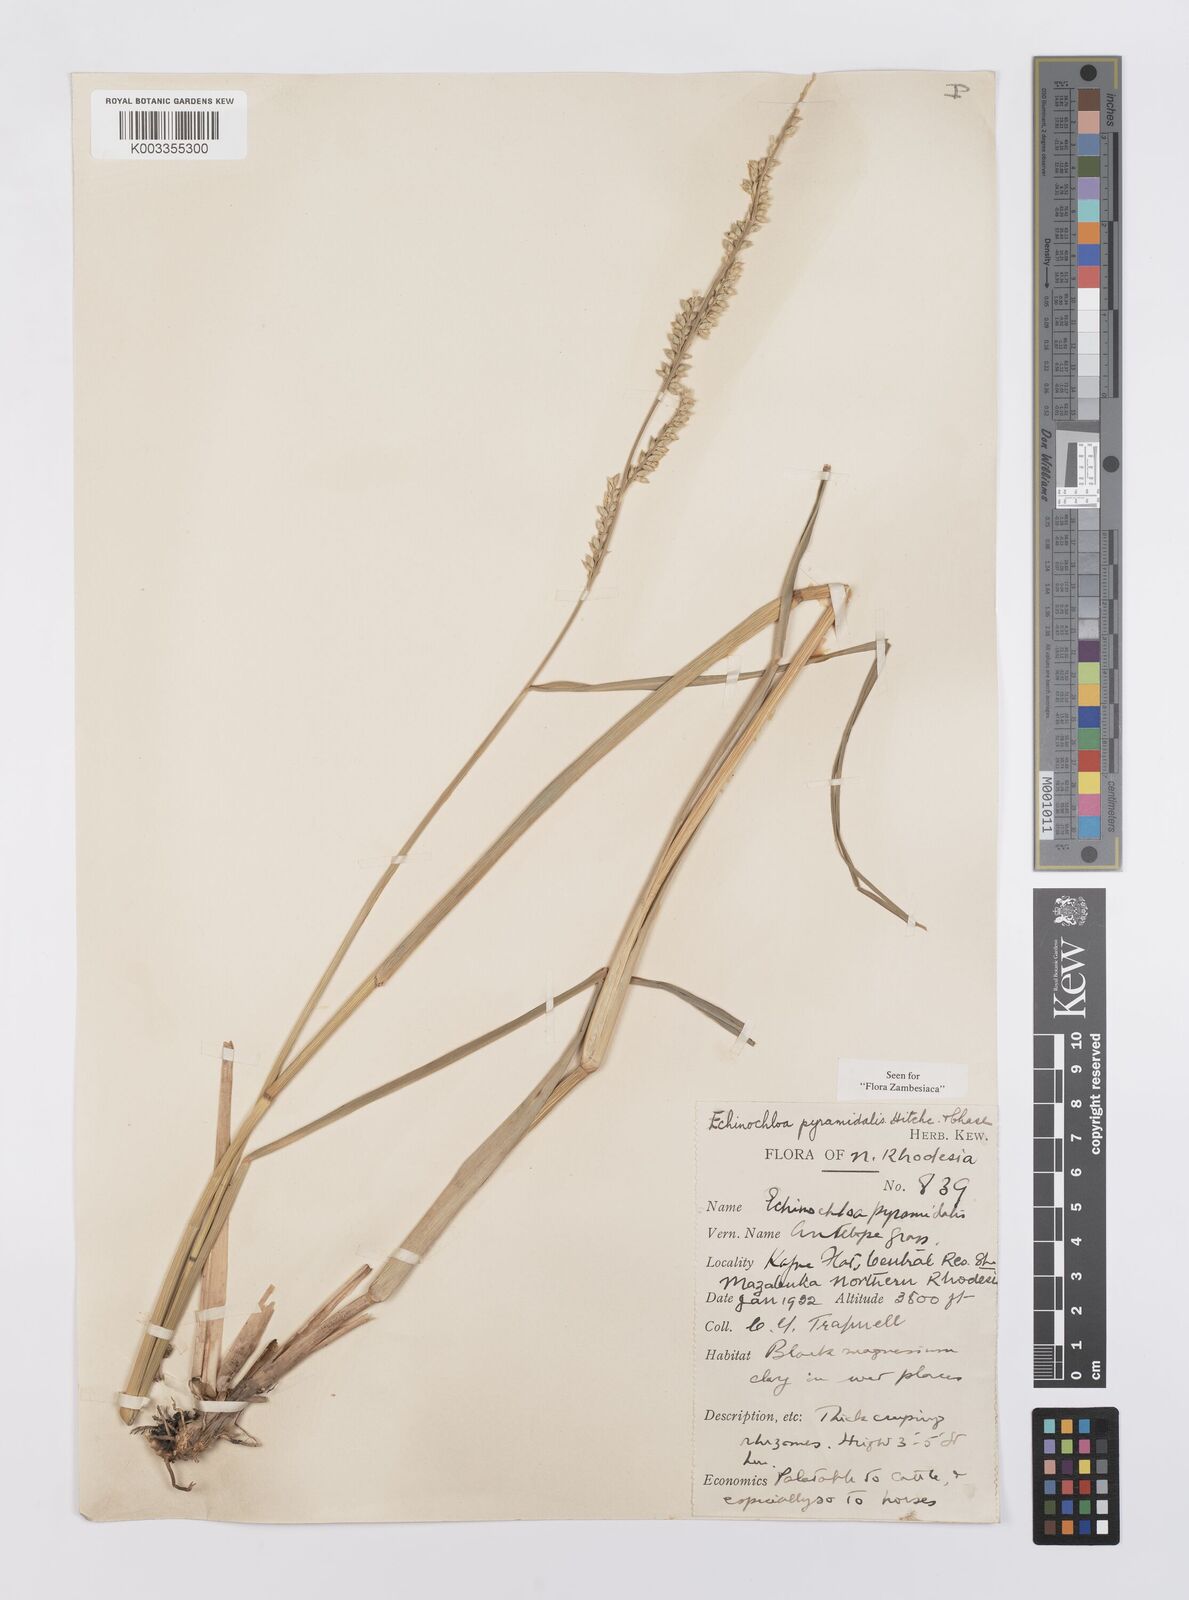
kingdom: Plantae
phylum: Tracheophyta
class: Liliopsida
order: Poales
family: Poaceae
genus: Echinochloa
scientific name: Echinochloa pyramidalis
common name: Antelope grass
